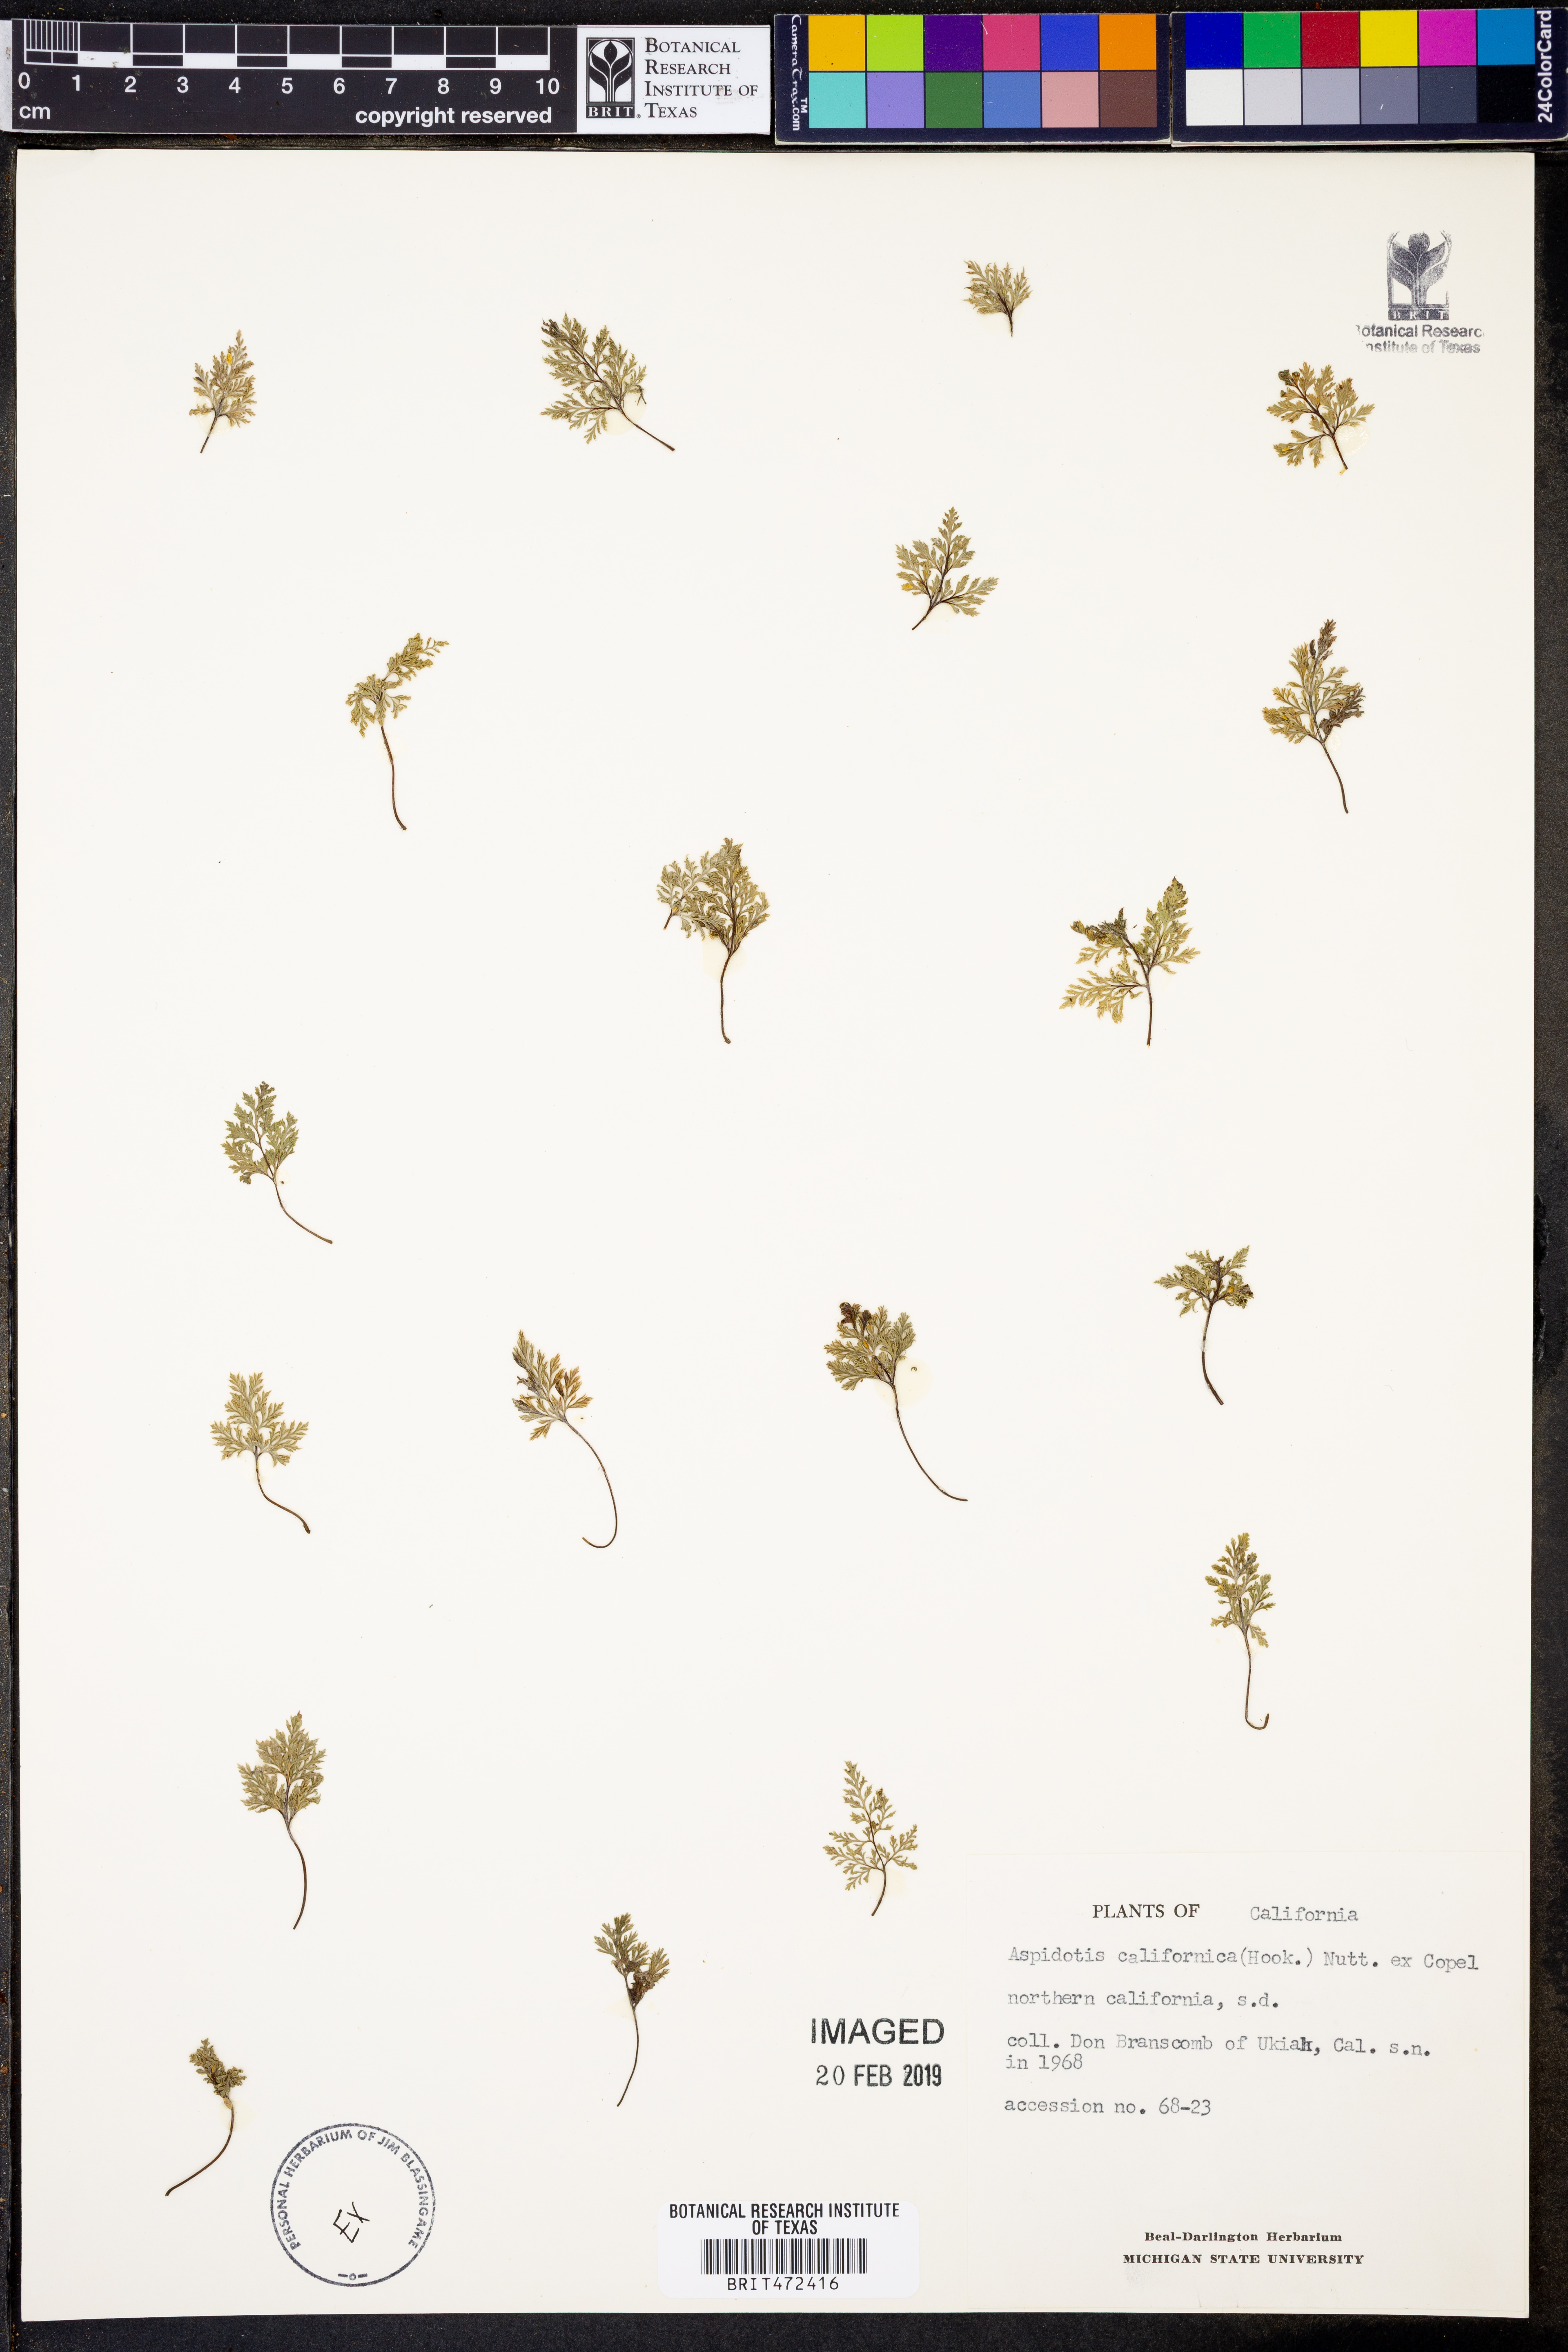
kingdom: Plantae
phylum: Tracheophyta
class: Polypodiopsida
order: Polypodiales
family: Pteridaceae
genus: Aspidotis
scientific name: Aspidotis californica
